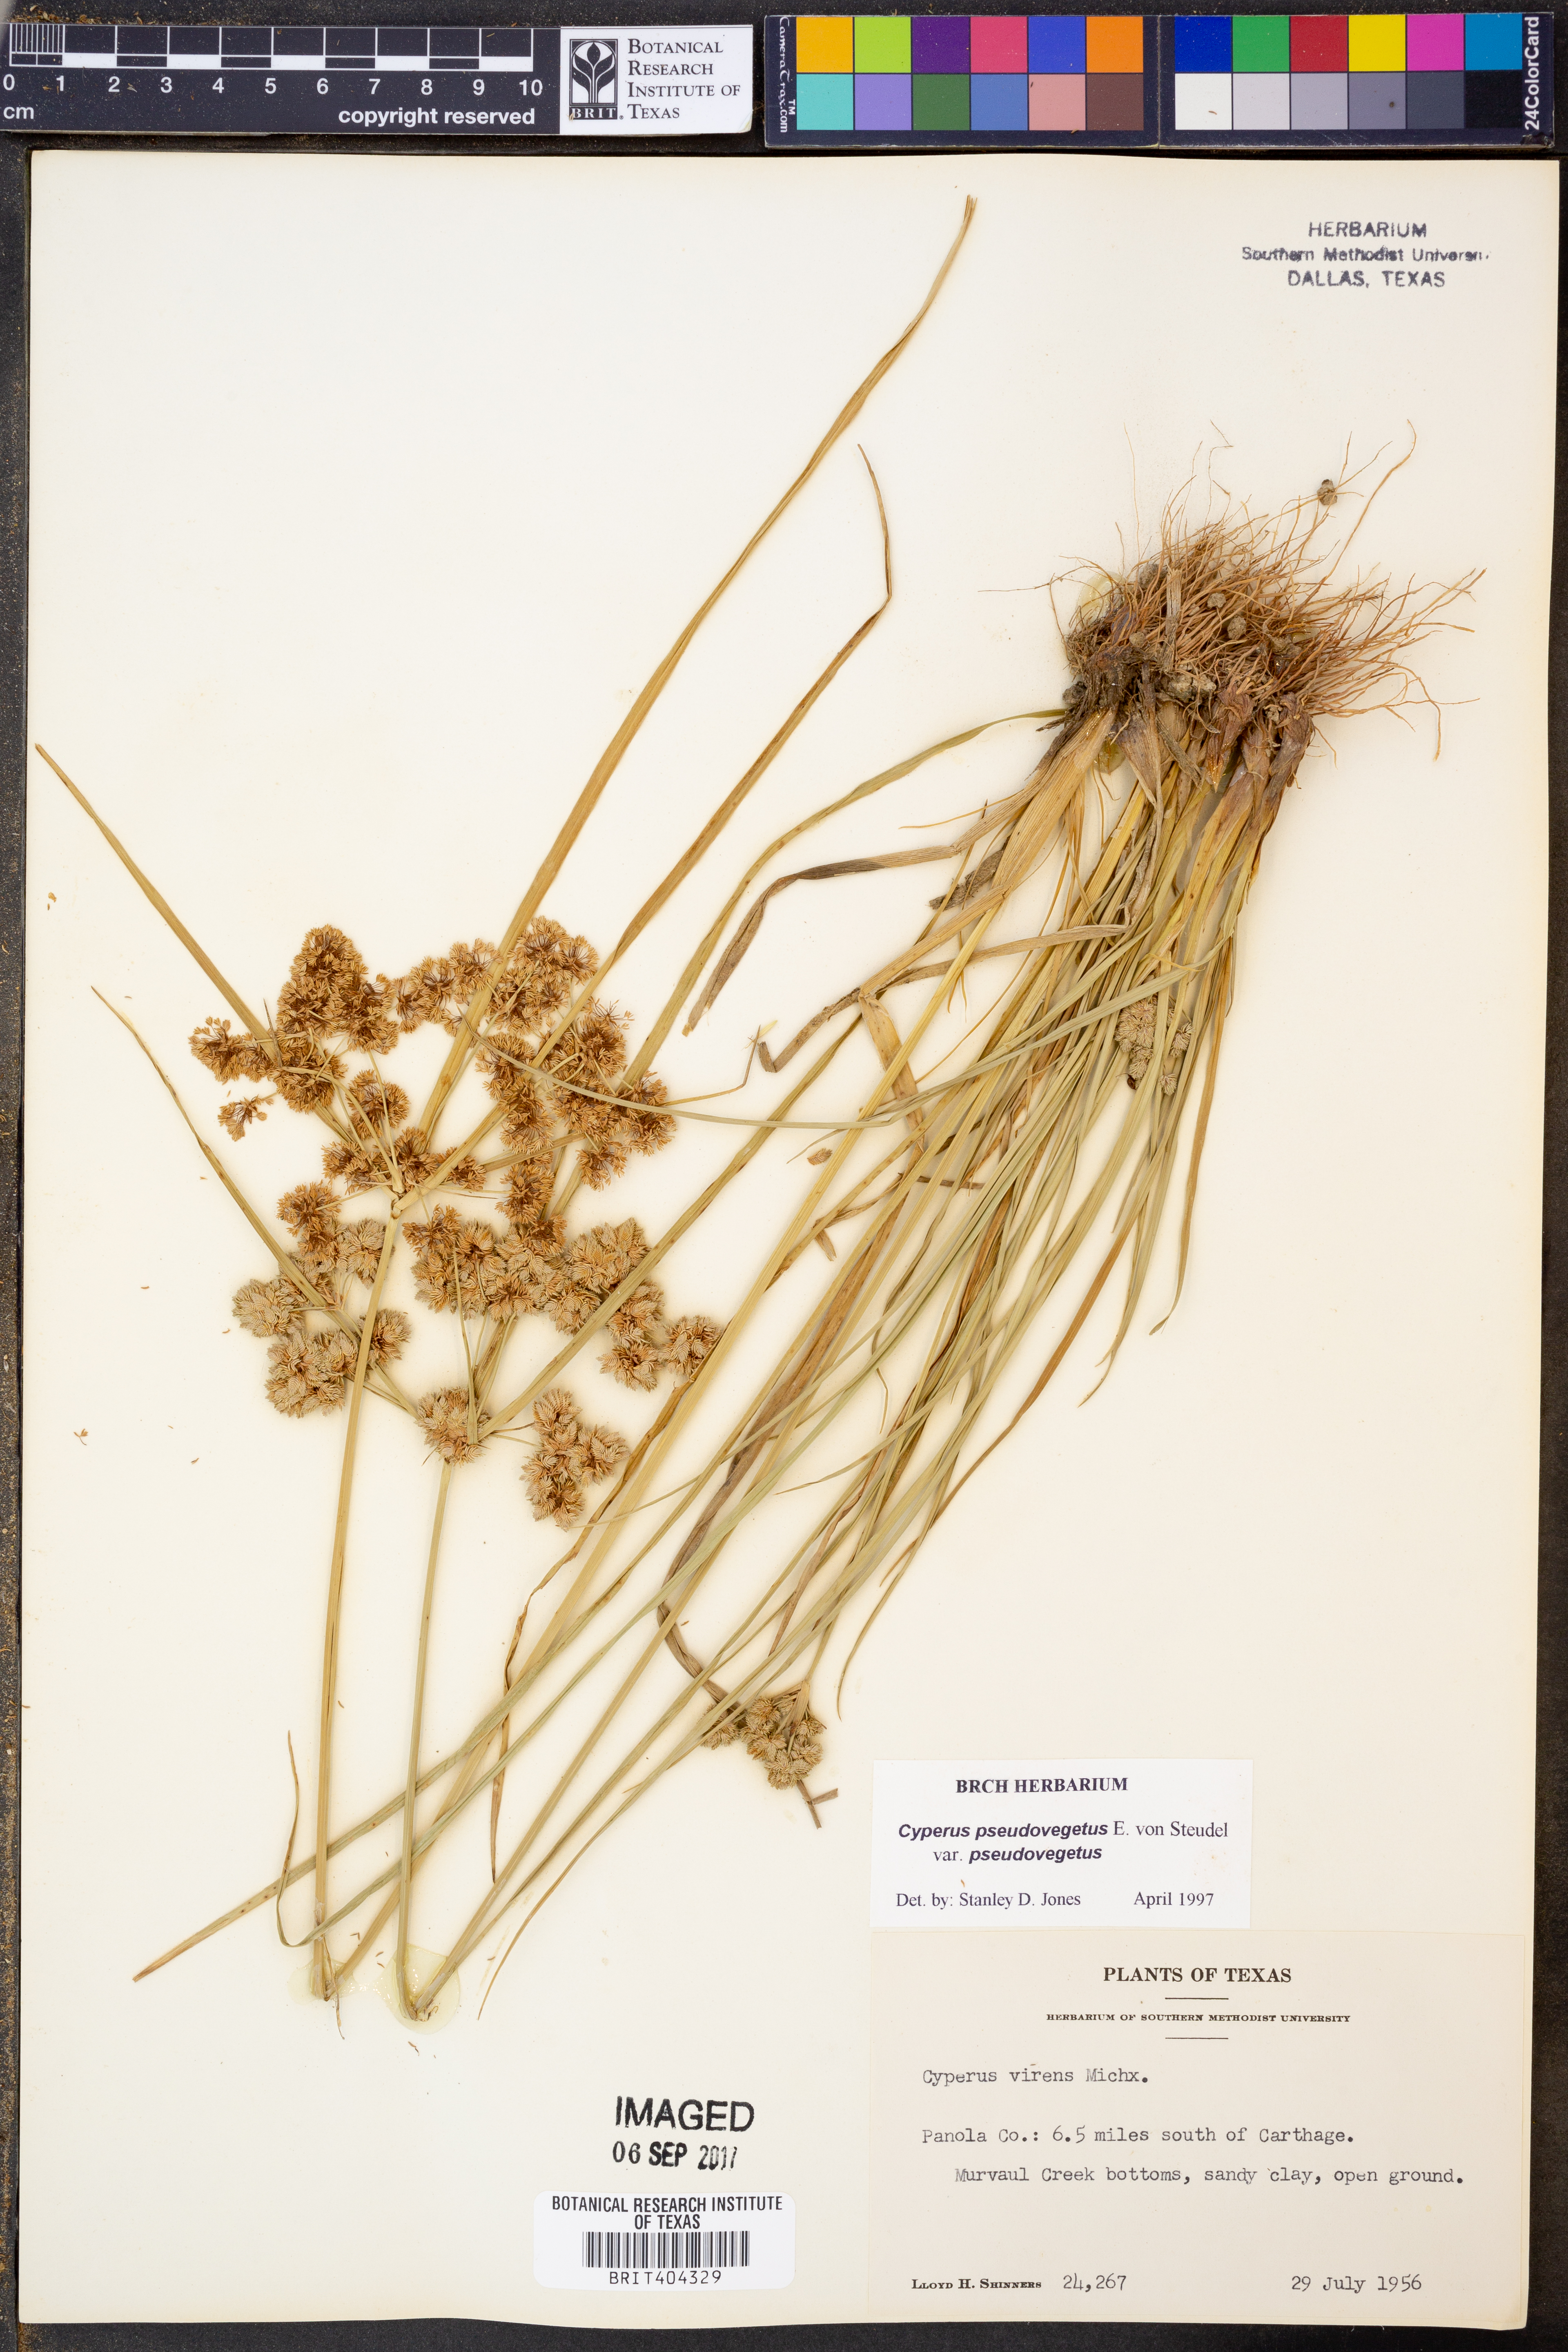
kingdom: Plantae
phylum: Tracheophyta
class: Liliopsida
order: Poales
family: Cyperaceae
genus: Cyperus
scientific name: Cyperus pseudovegetus
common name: Marsh flat sedge
